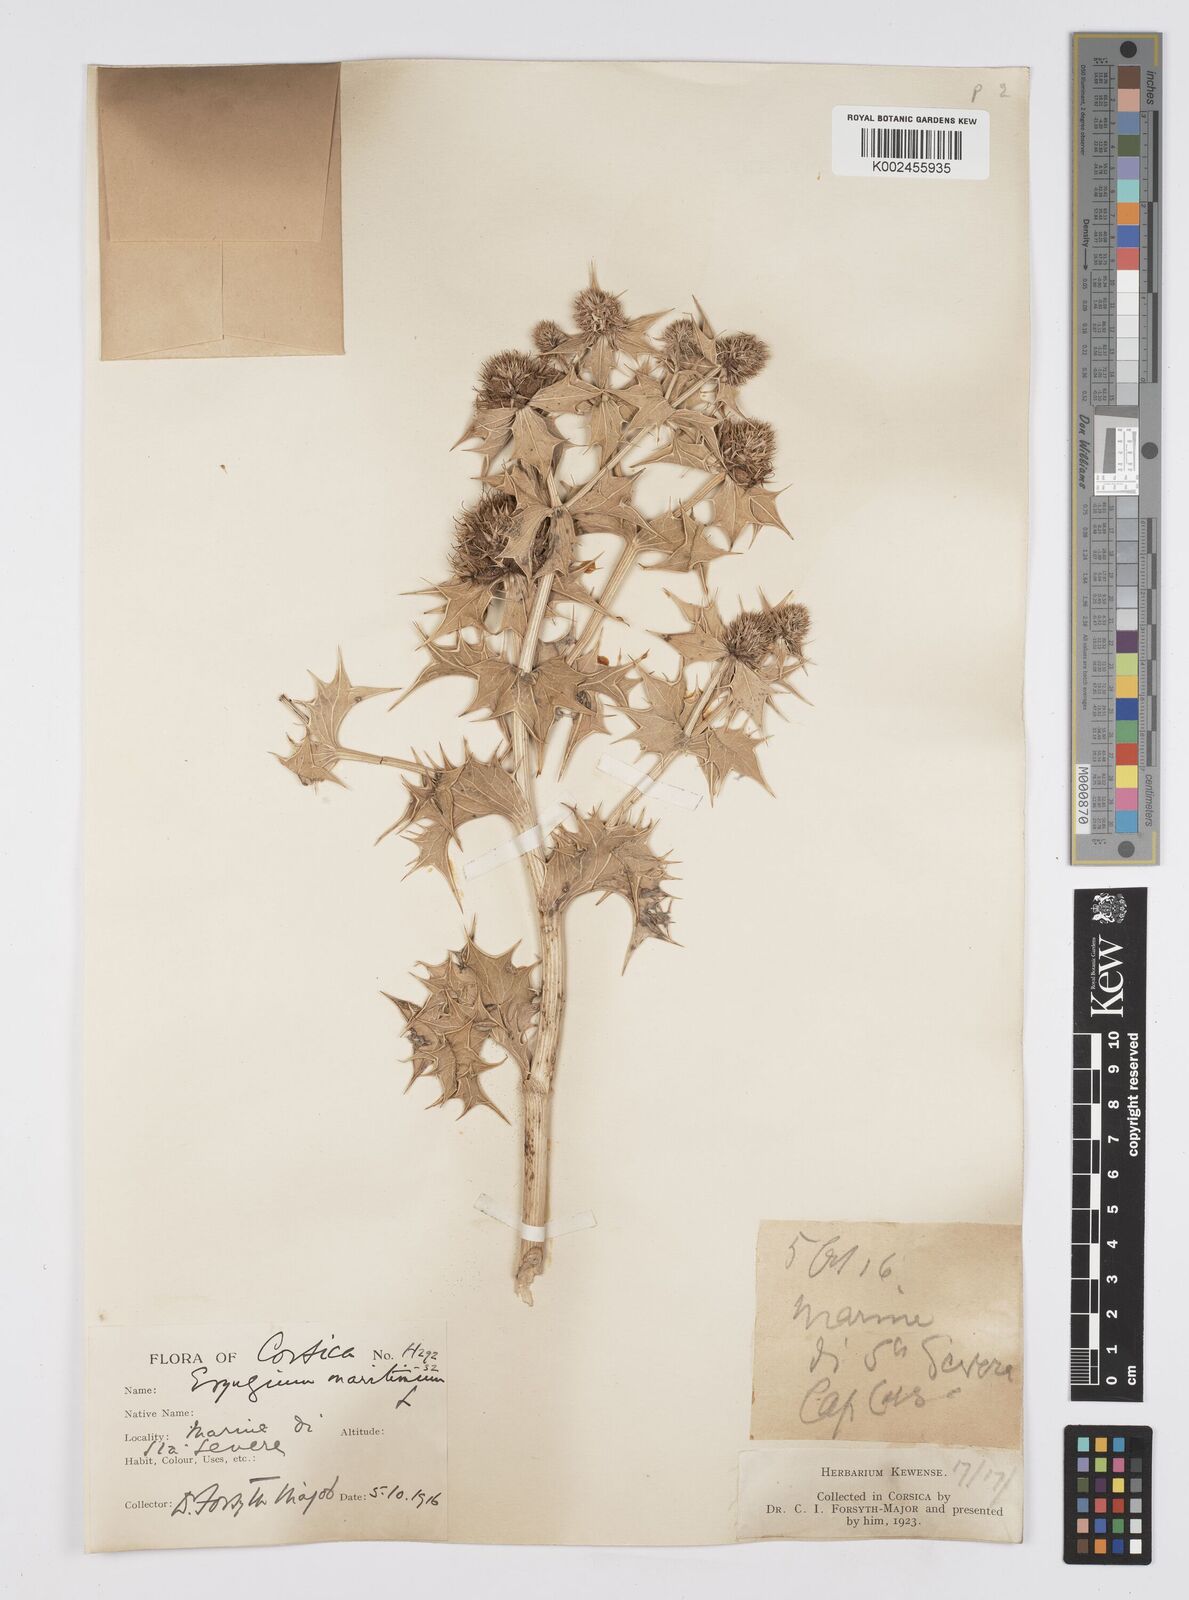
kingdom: Plantae
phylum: Tracheophyta
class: Magnoliopsida
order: Apiales
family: Apiaceae
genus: Eryngium
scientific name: Eryngium maritimum
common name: Sea-holly
